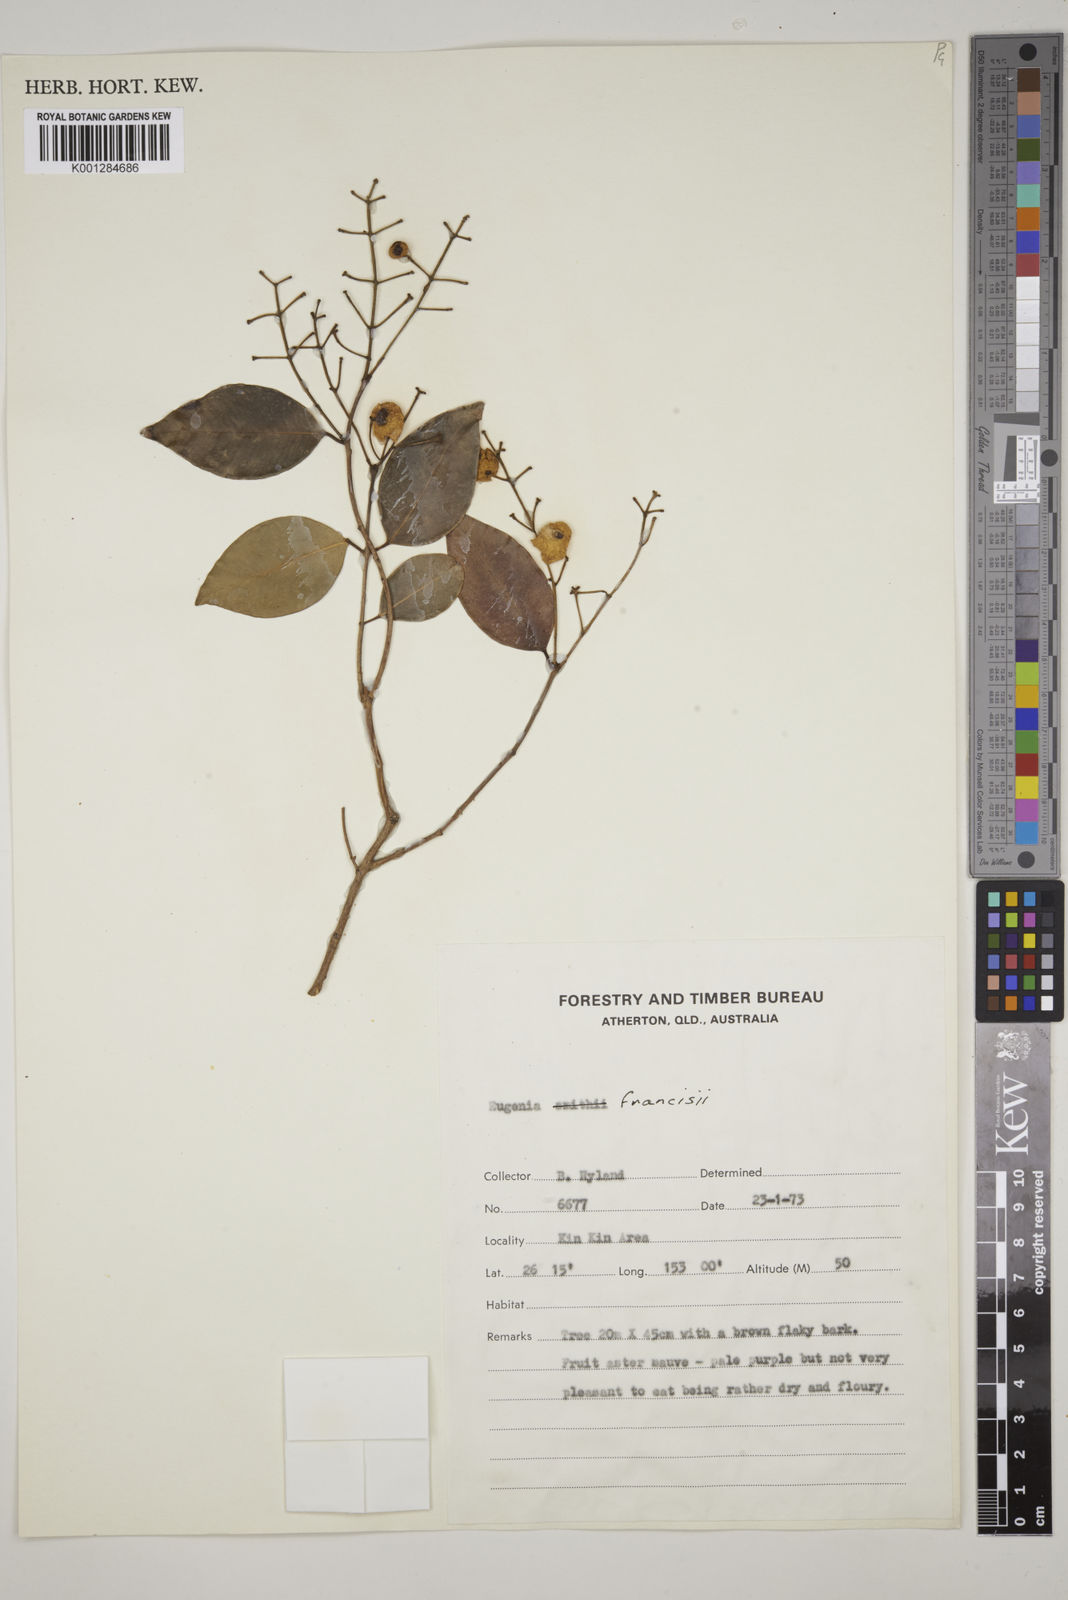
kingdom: Plantae
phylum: Tracheophyta
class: Magnoliopsida
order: Myrtales
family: Myrtaceae
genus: Syzygium
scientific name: Syzygium francisii
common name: Giant water-gum
